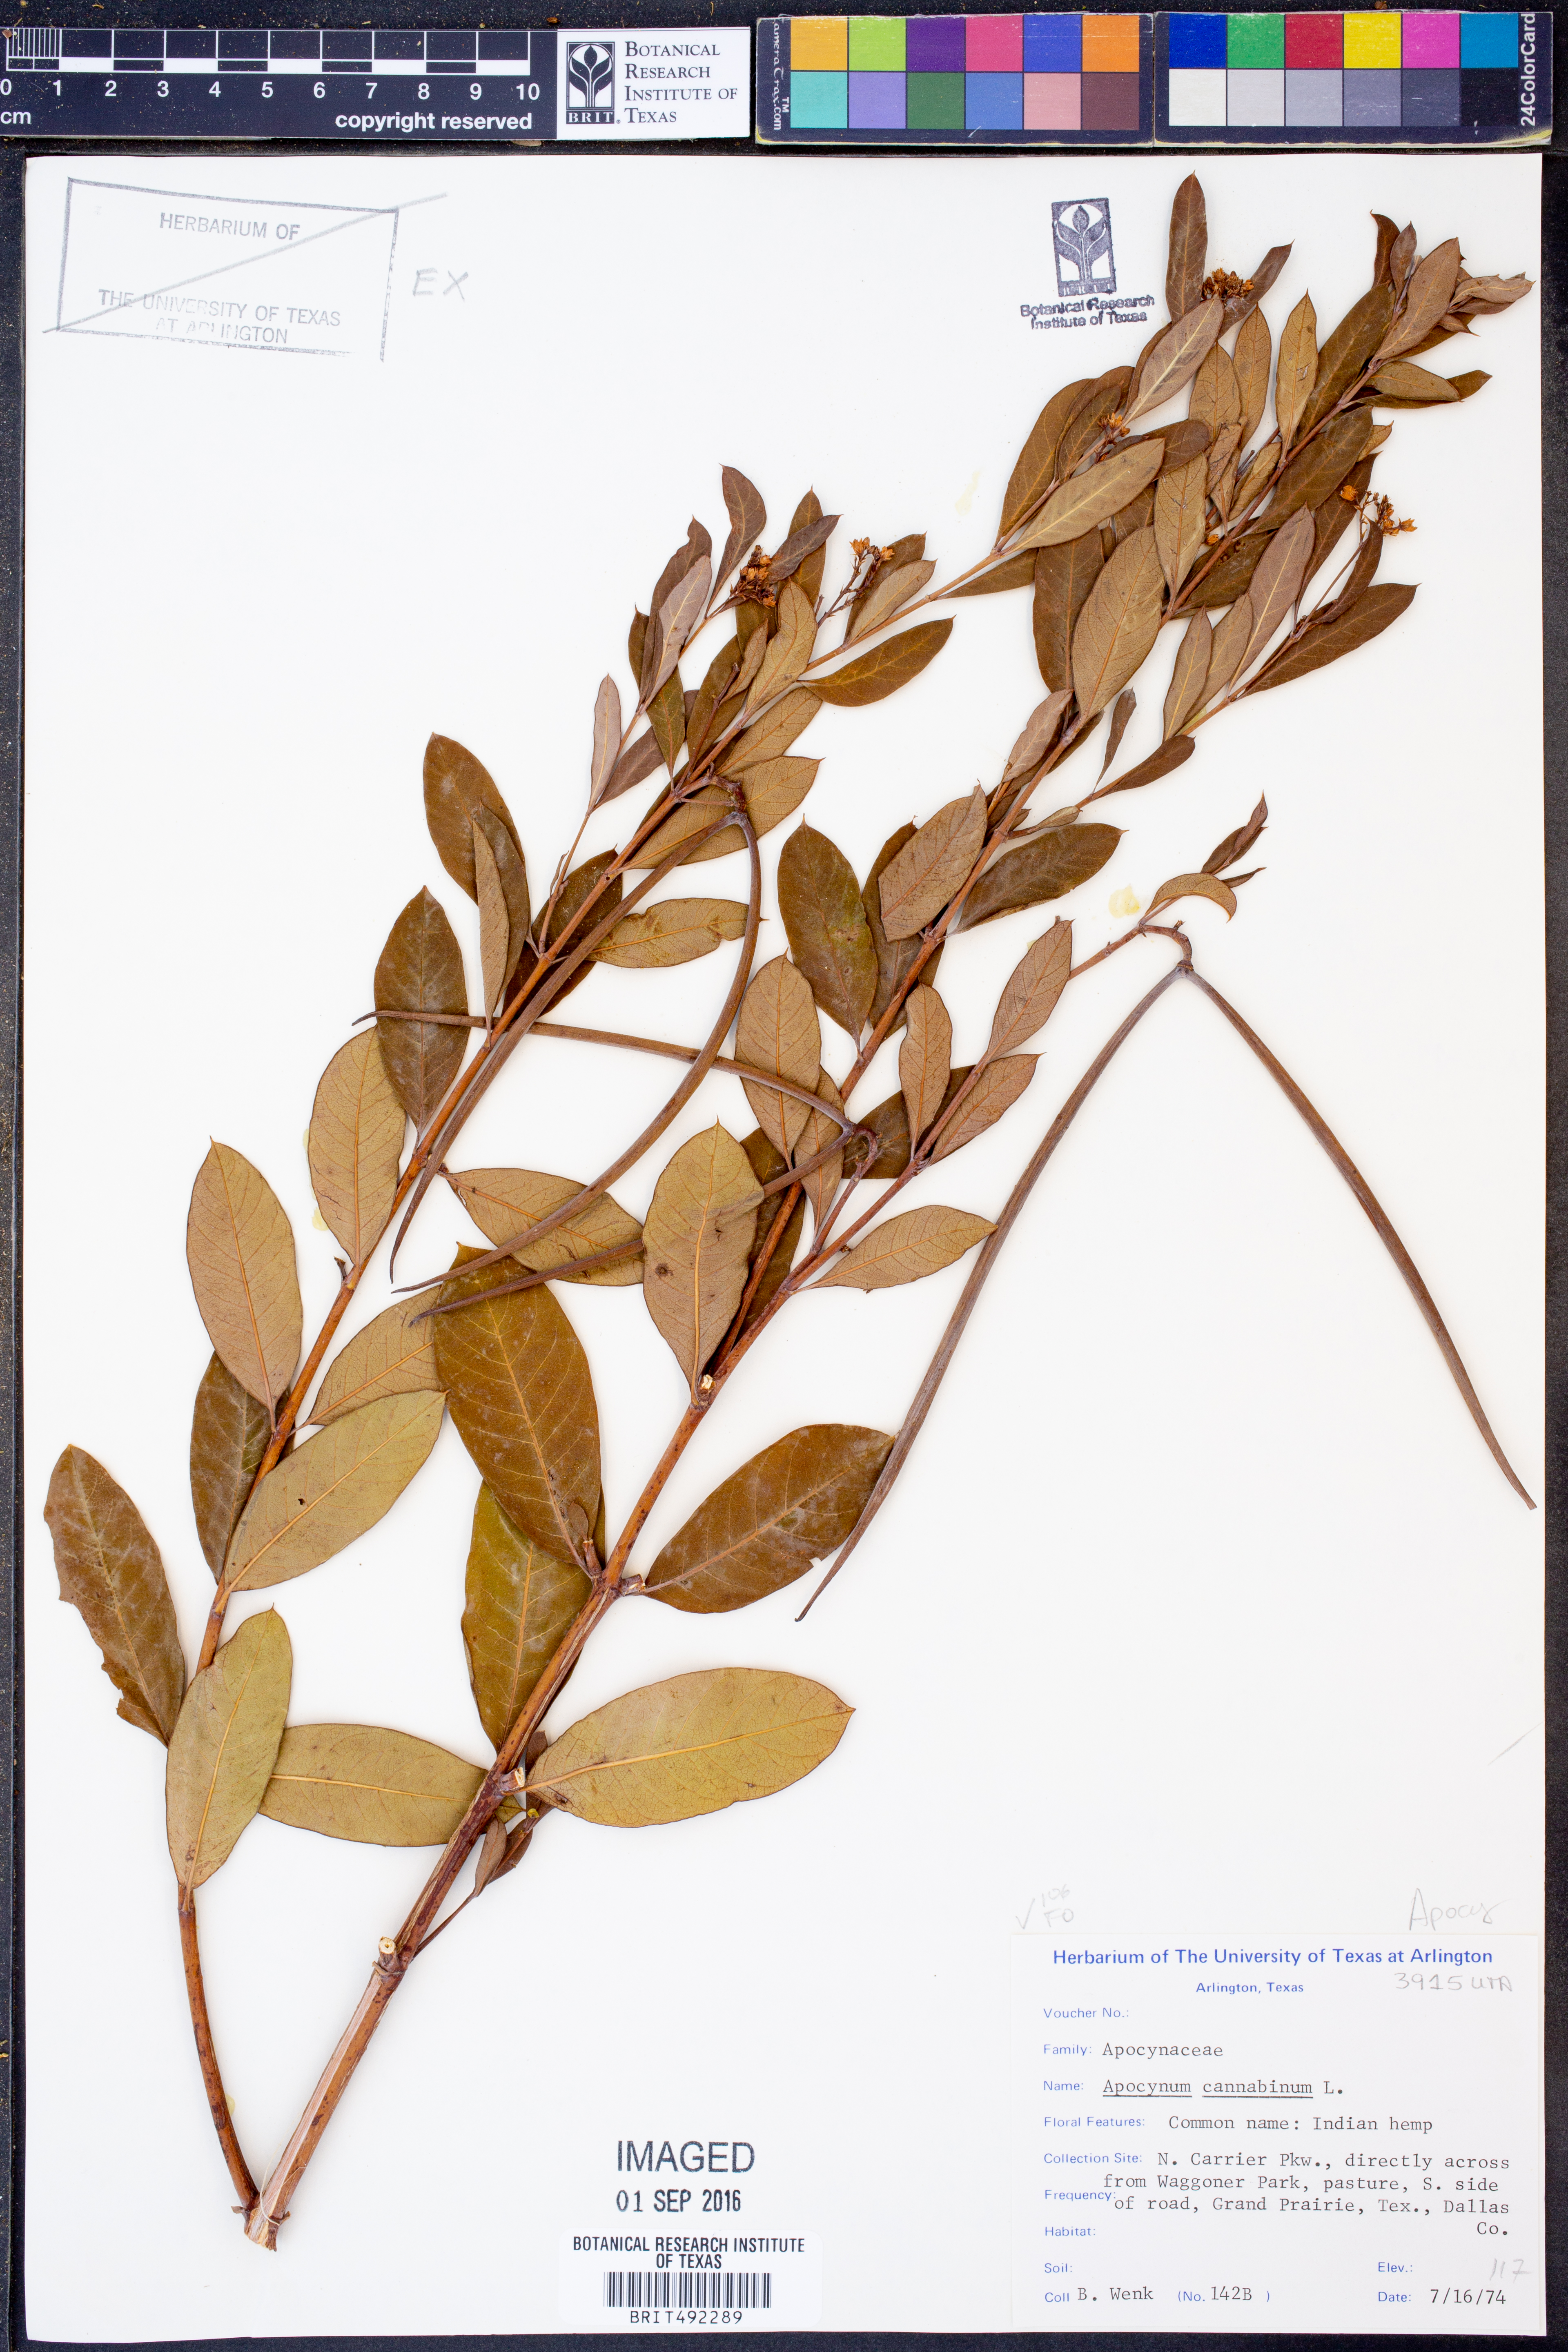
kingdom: Plantae
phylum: Tracheophyta
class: Magnoliopsida
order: Gentianales
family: Apocynaceae
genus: Apocynum
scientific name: Apocynum cannabinum
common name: Hemp dogbane
